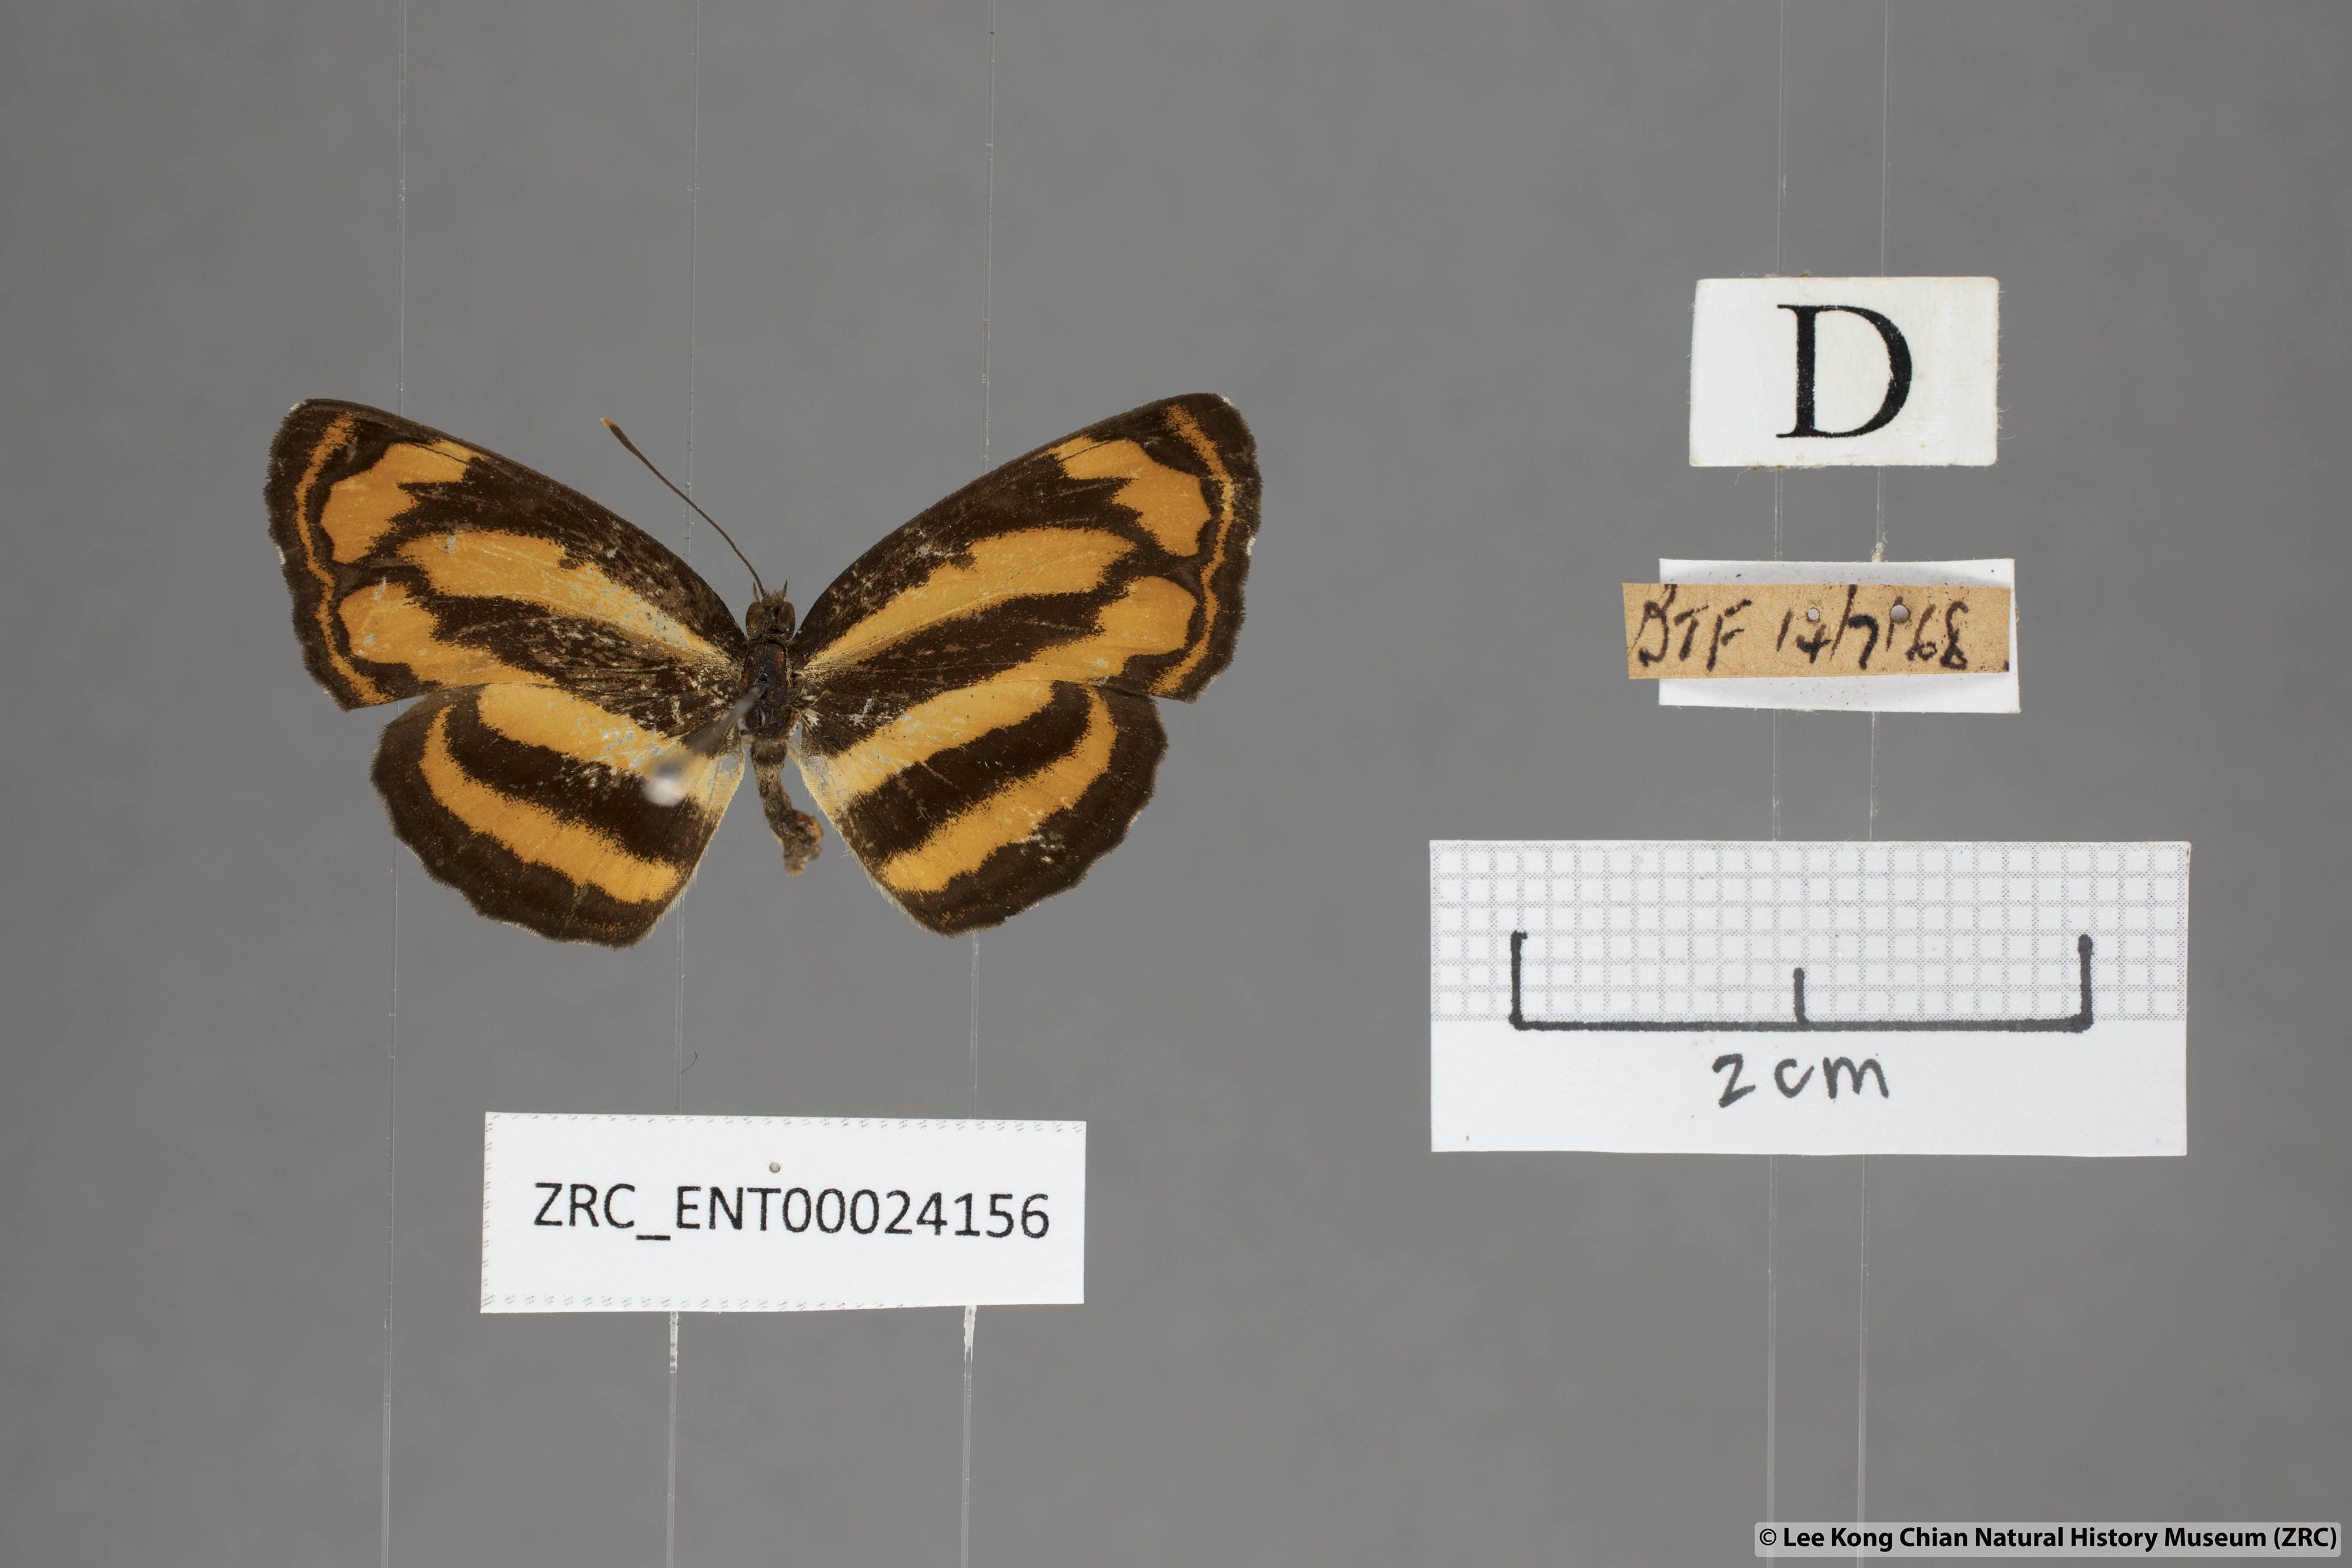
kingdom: Animalia
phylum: Arthropoda
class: Insecta
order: Lepidoptera
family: Nymphalidae
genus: Pantoporia
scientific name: Pantoporia sandaka
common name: Extra lascar
